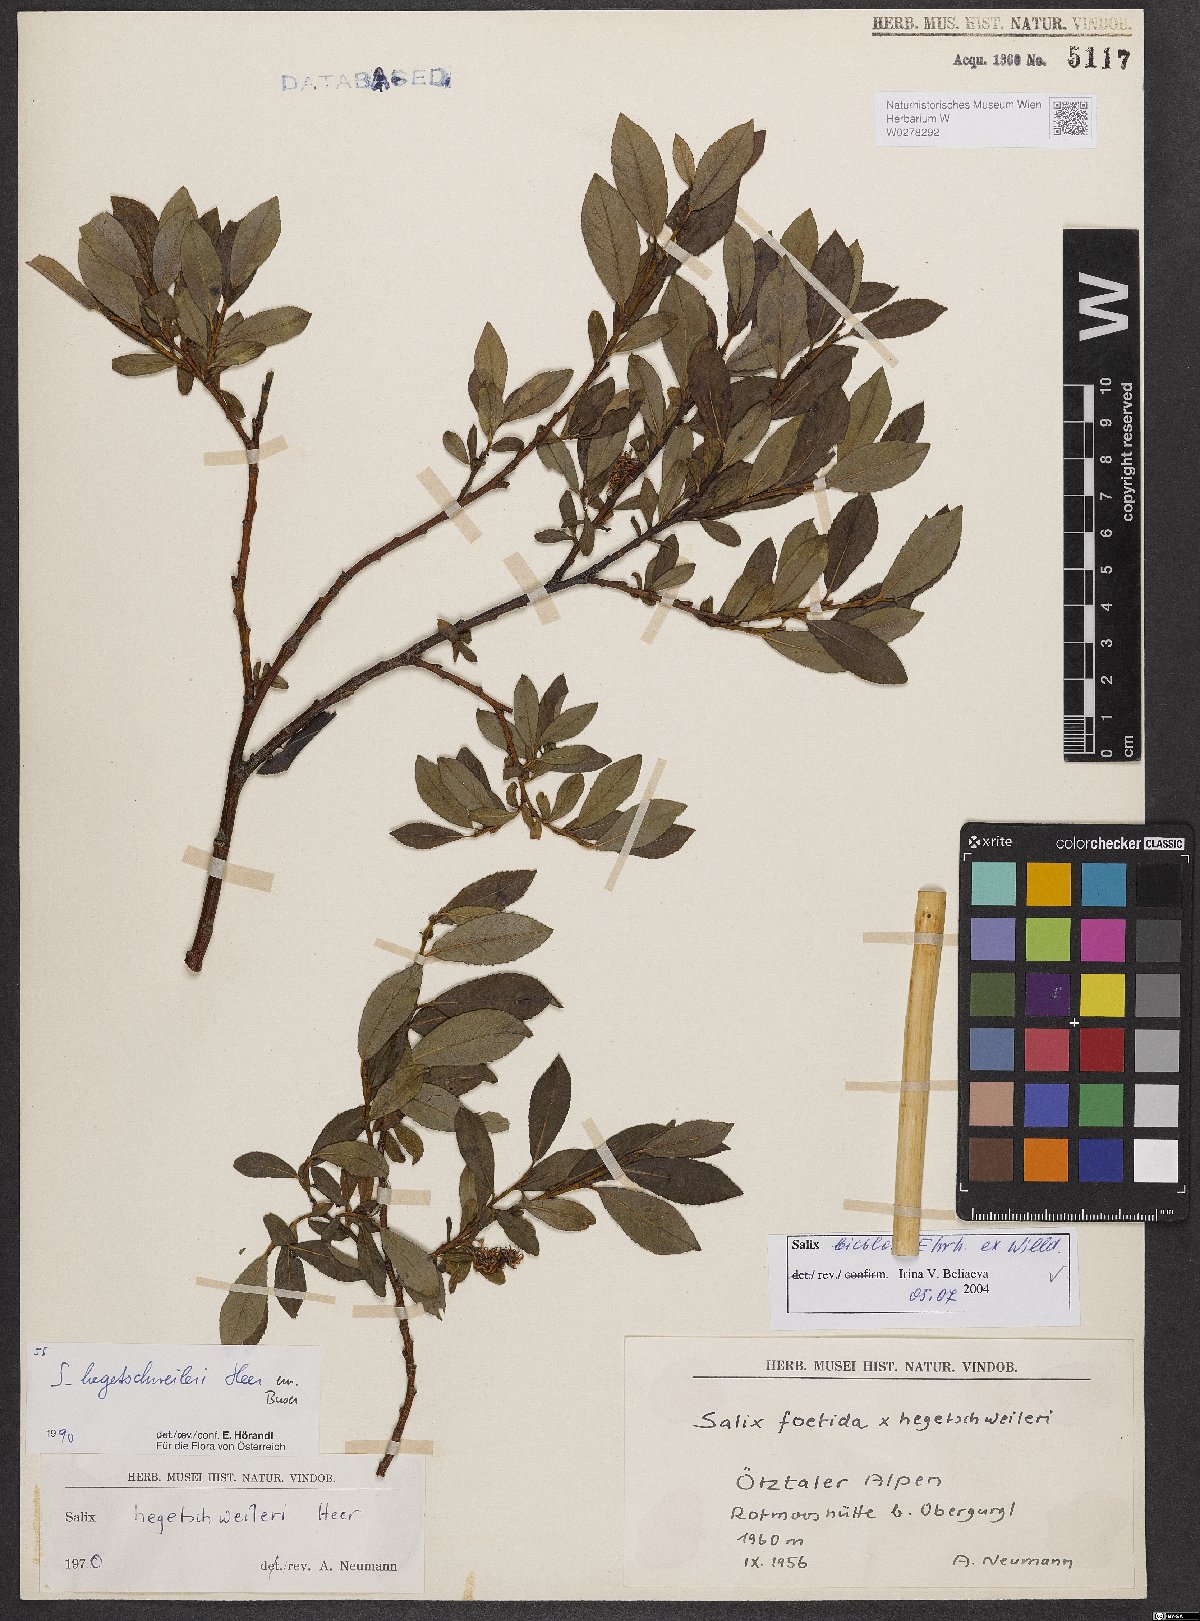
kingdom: Plantae
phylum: Tracheophyta
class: Magnoliopsida
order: Malpighiales
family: Salicaceae
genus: Salix
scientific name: Salix bicolor
